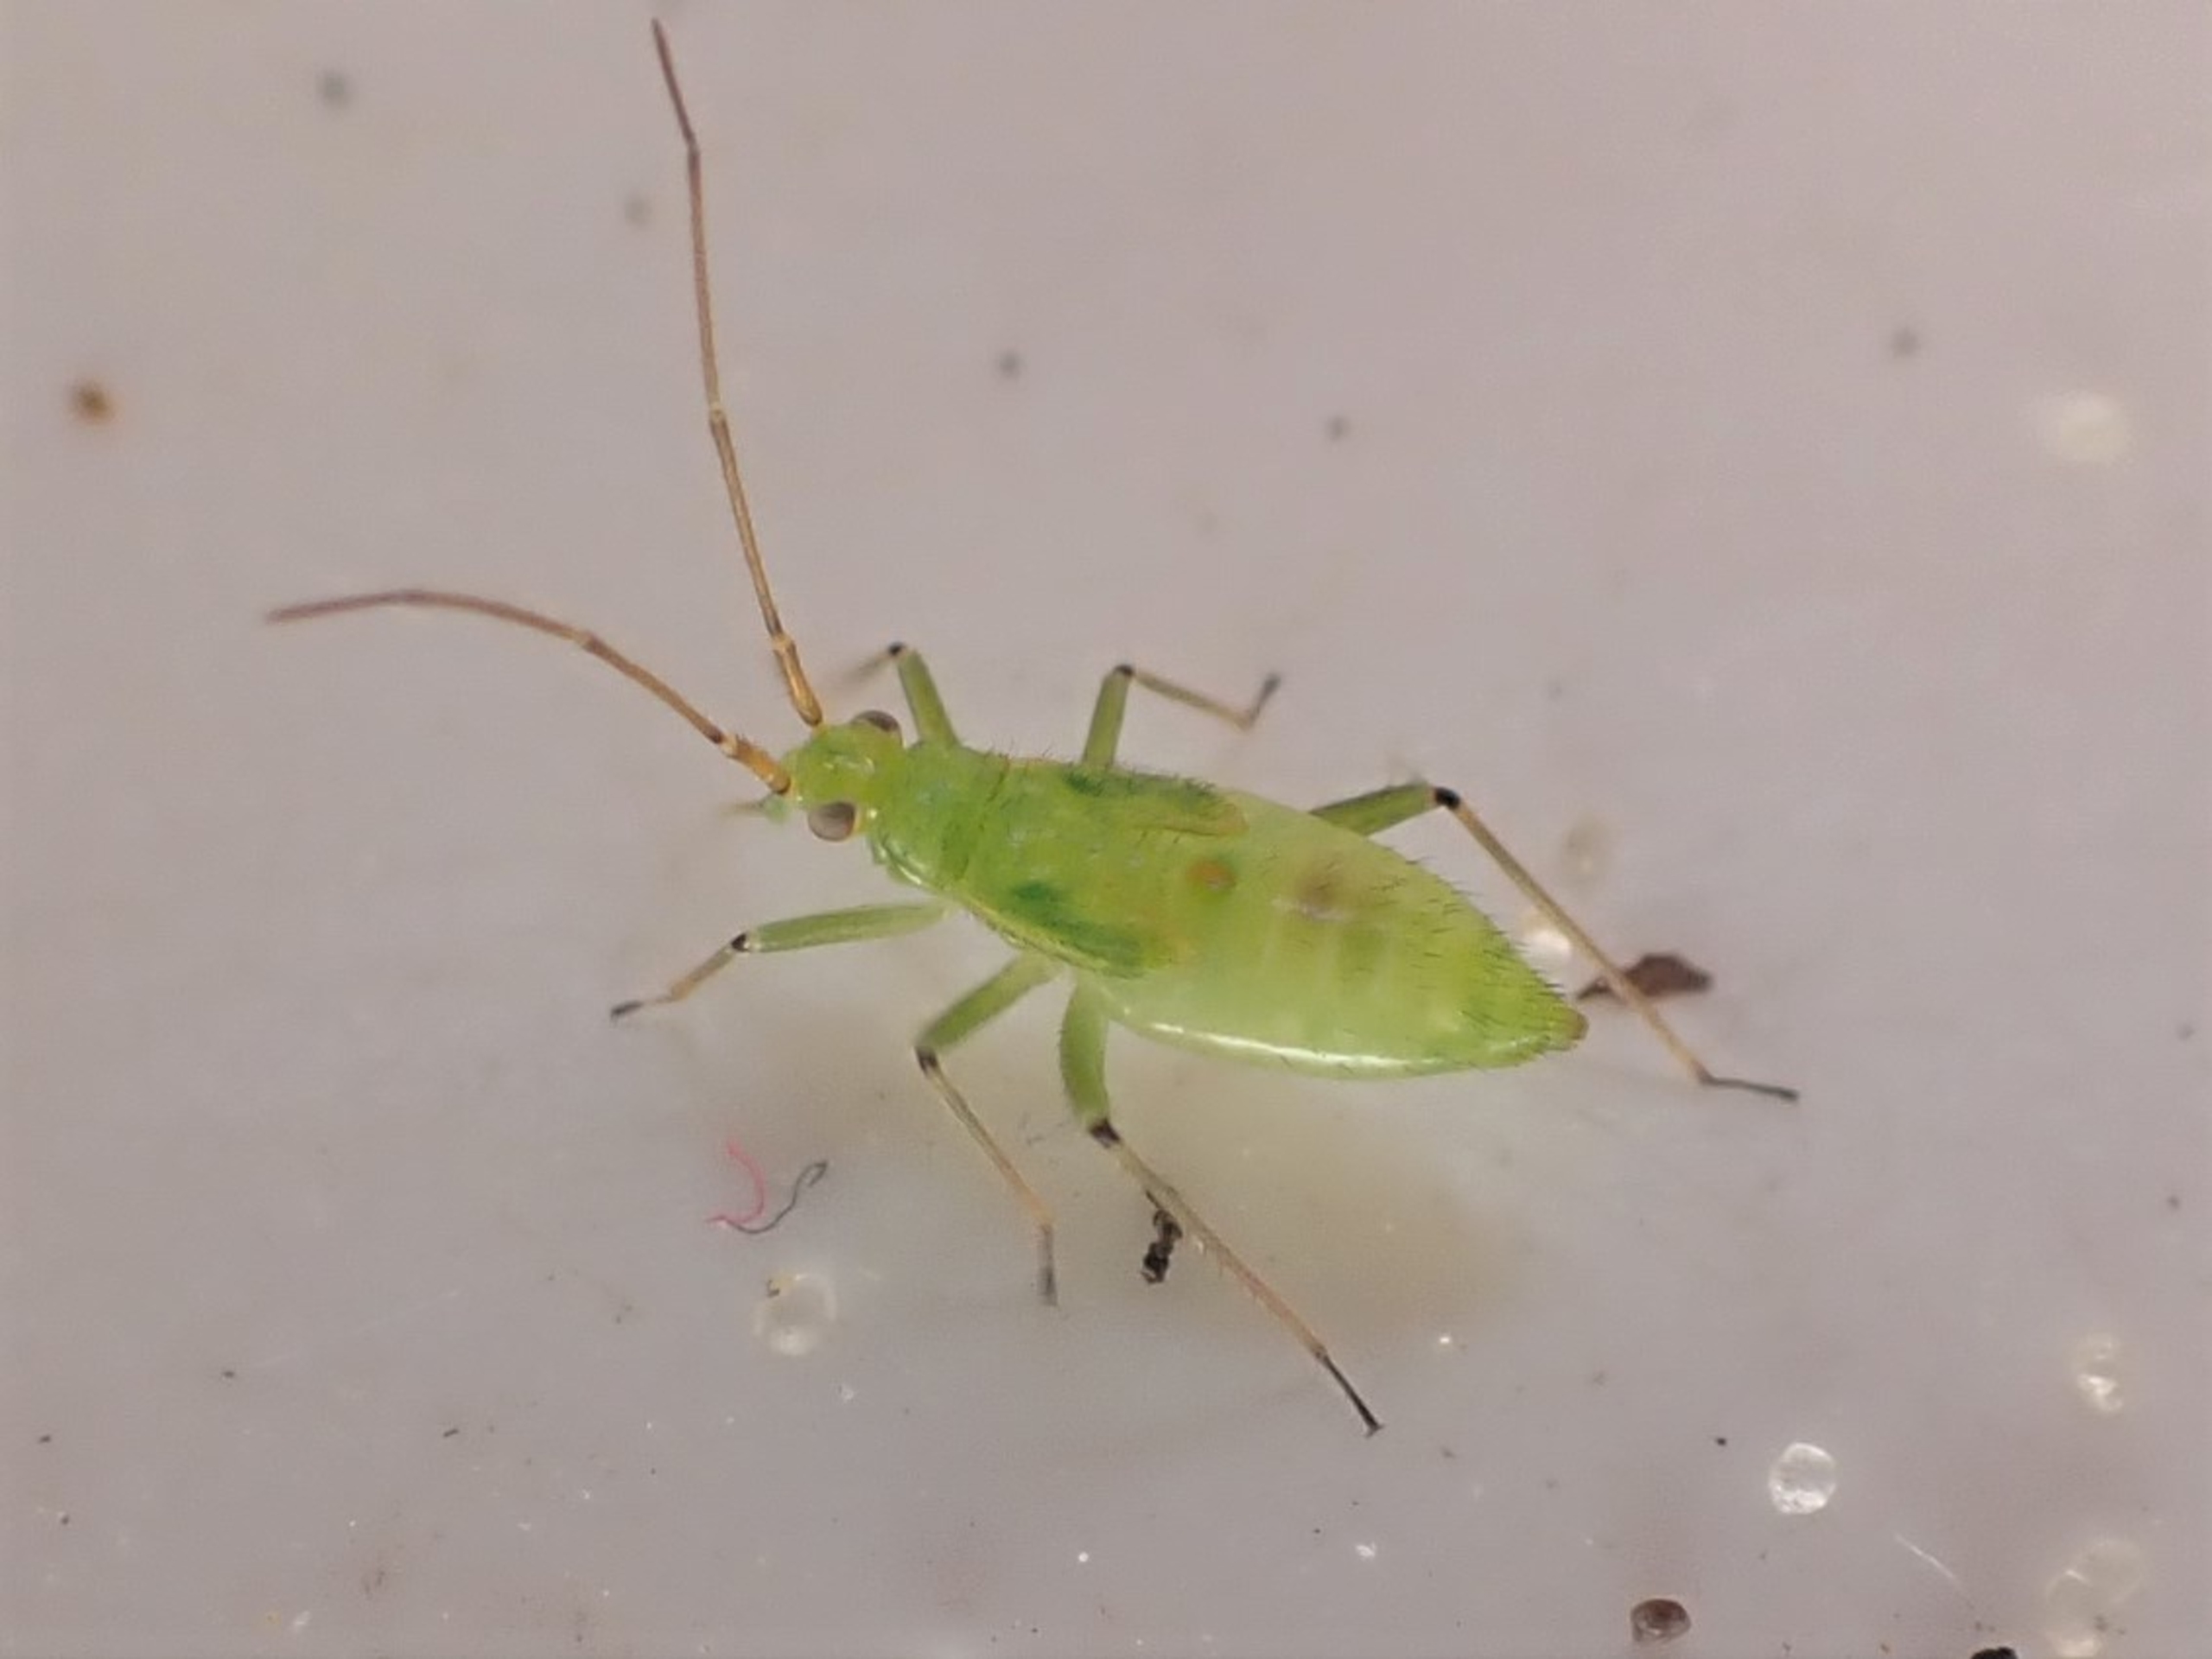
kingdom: Animalia
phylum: Arthropoda
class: Insecta
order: Hemiptera
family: Miridae
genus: Blepharidopterus
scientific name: Blepharidopterus angulatus
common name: Sortknæet blomstertæge
